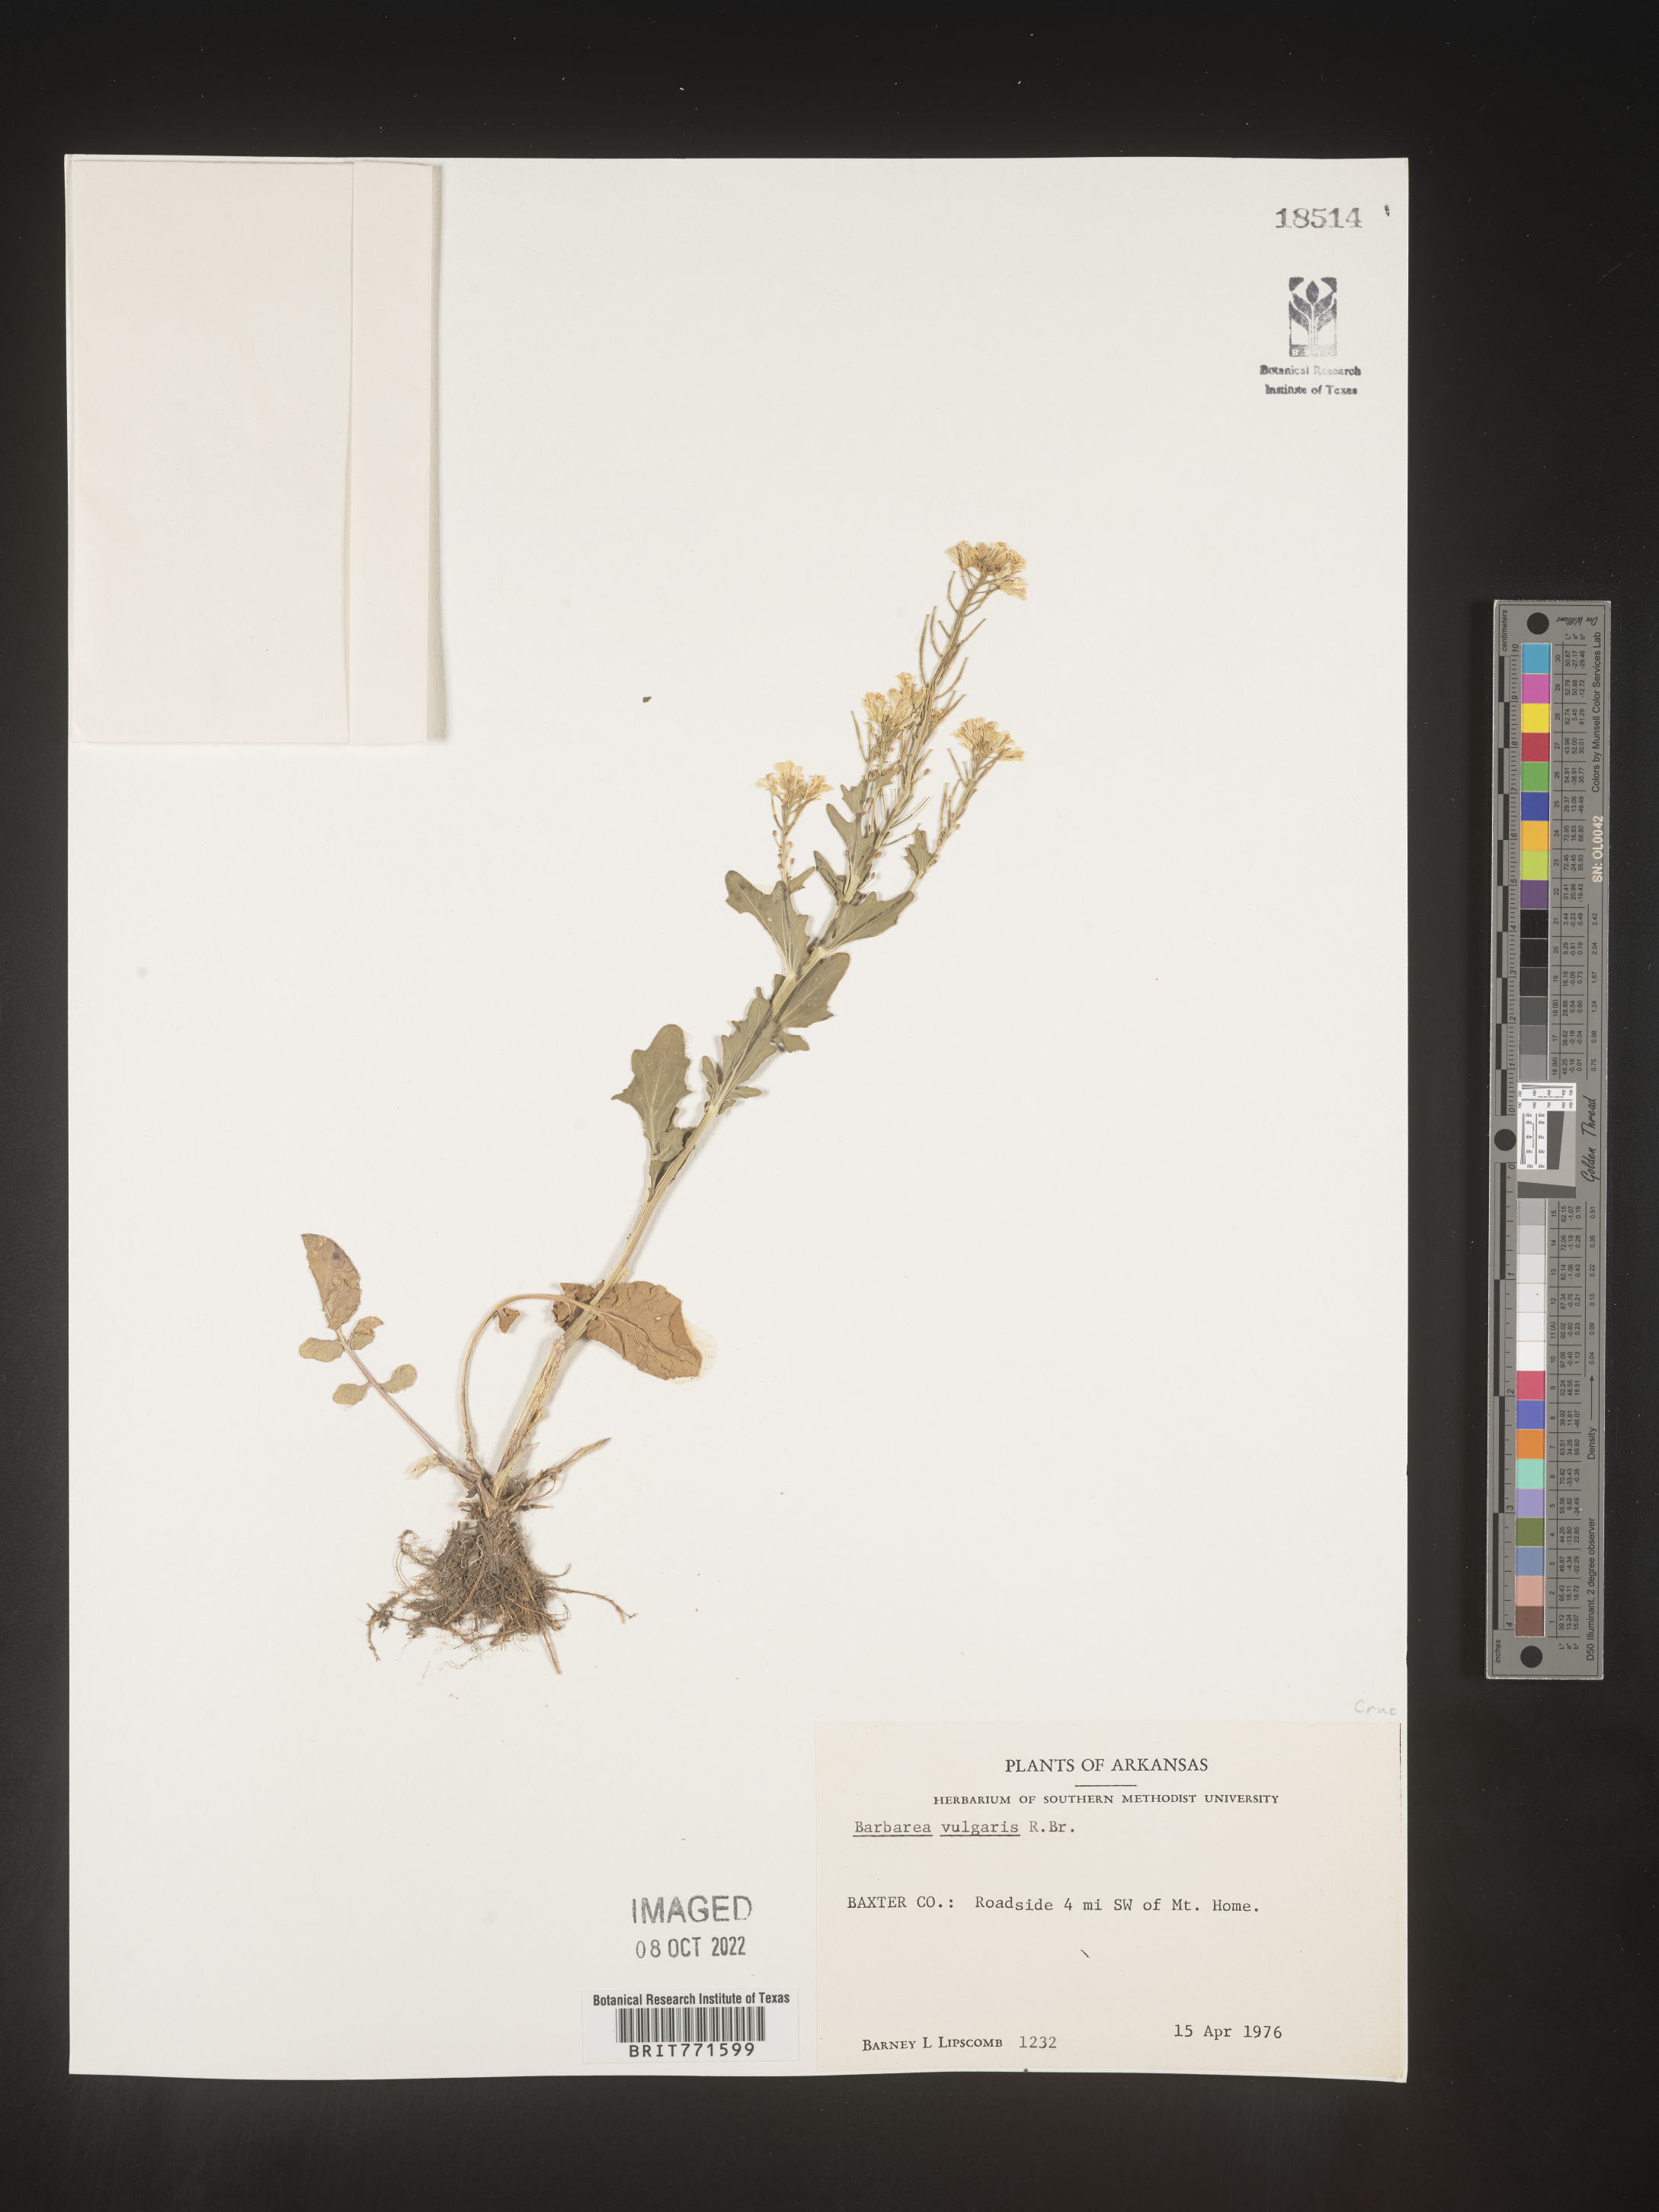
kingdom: Plantae
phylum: Tracheophyta
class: Magnoliopsida
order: Brassicales
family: Brassicaceae
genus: Barbarea
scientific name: Barbarea vulgaris
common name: Cressy-greens
